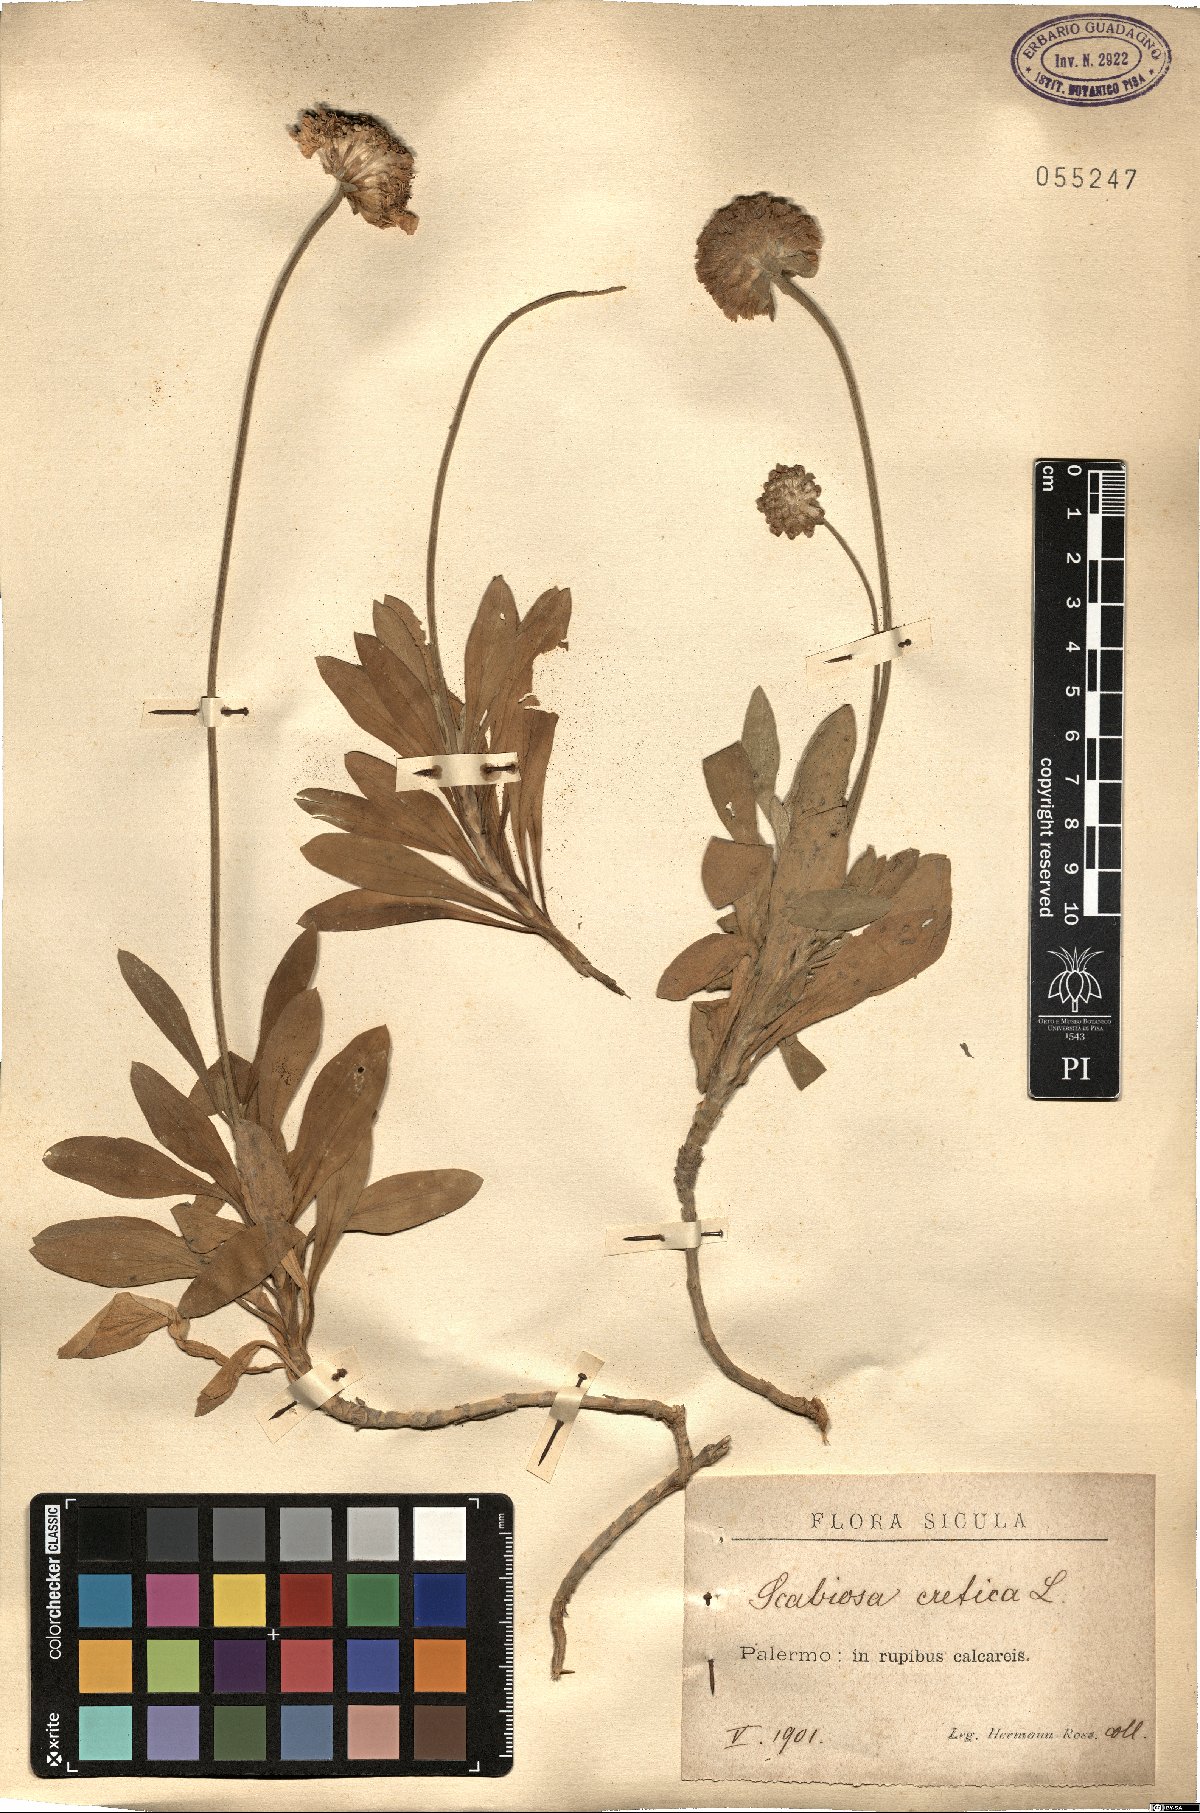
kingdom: Plantae
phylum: Tracheophyta
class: Magnoliopsida
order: Dipsacales
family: Caprifoliaceae
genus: Lomelosia
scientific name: Lomelosia cretica
